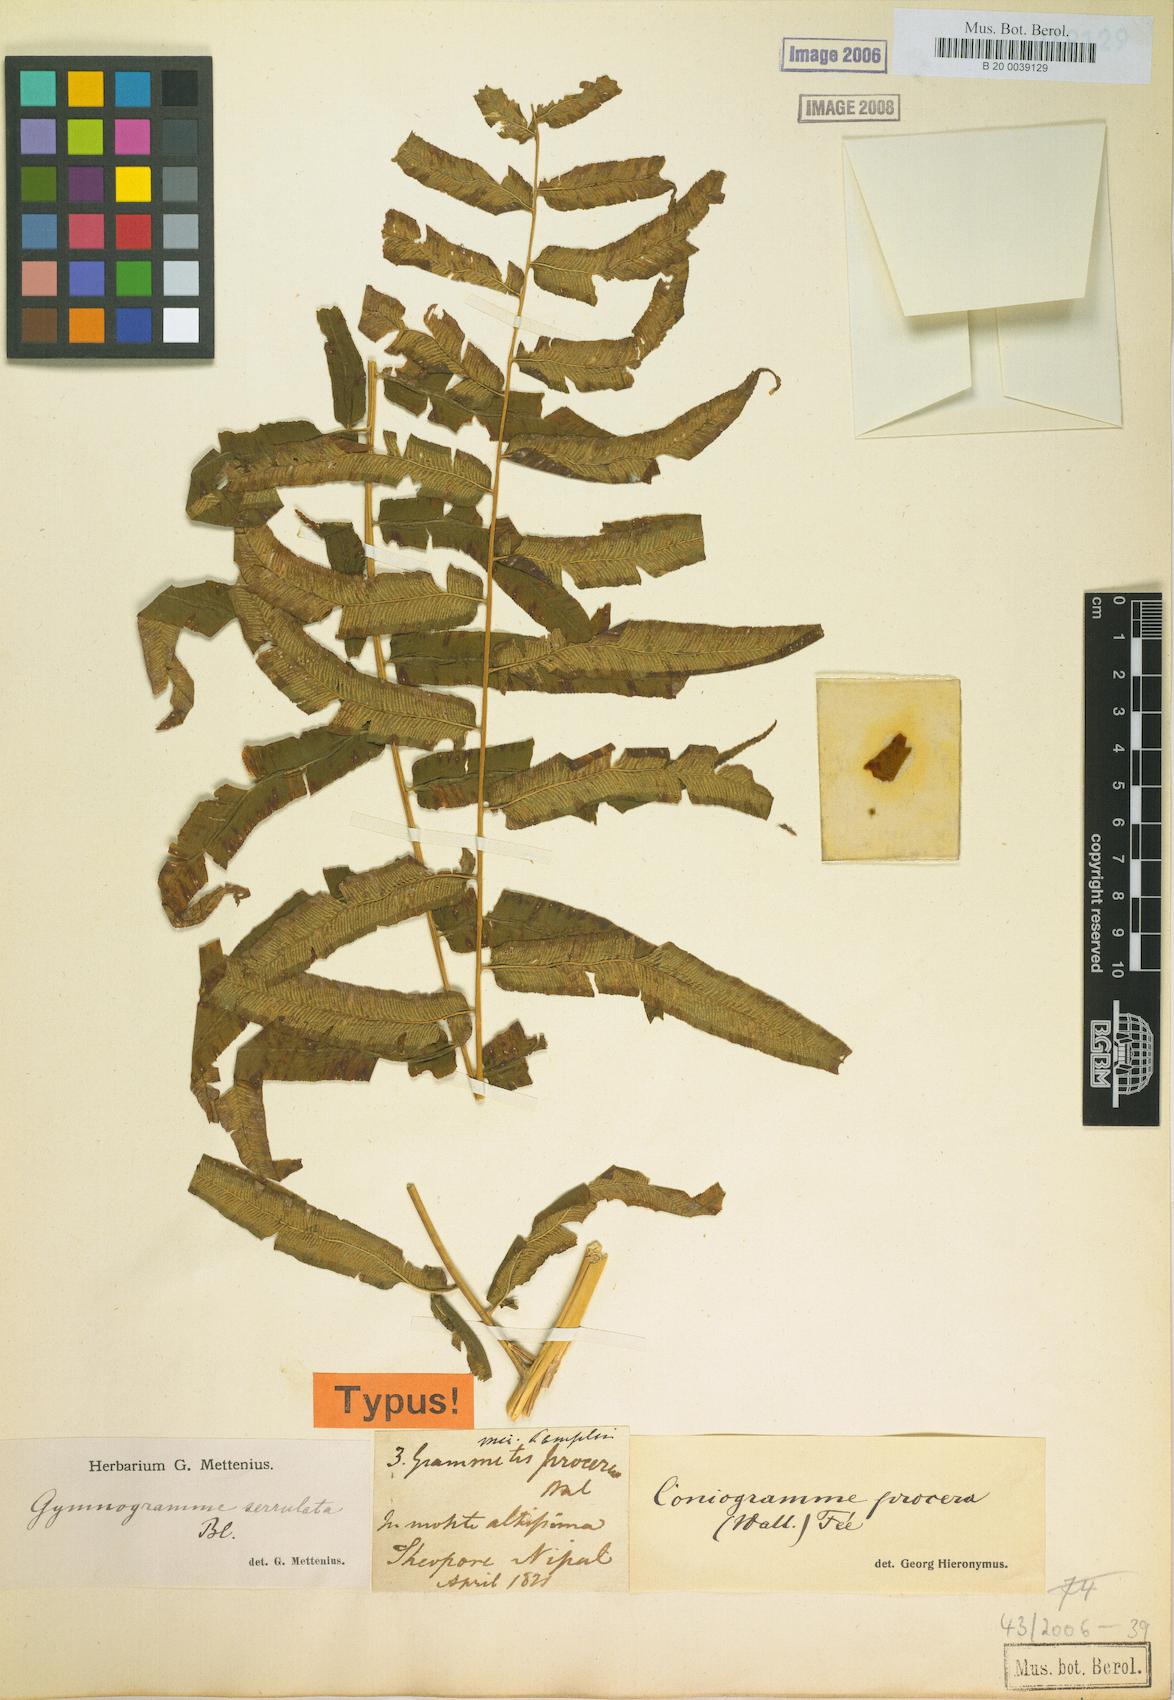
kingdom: Plantae
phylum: Tracheophyta
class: Polypodiopsida
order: Polypodiales
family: Pteridaceae
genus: Coniogramme
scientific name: Coniogramme procera
